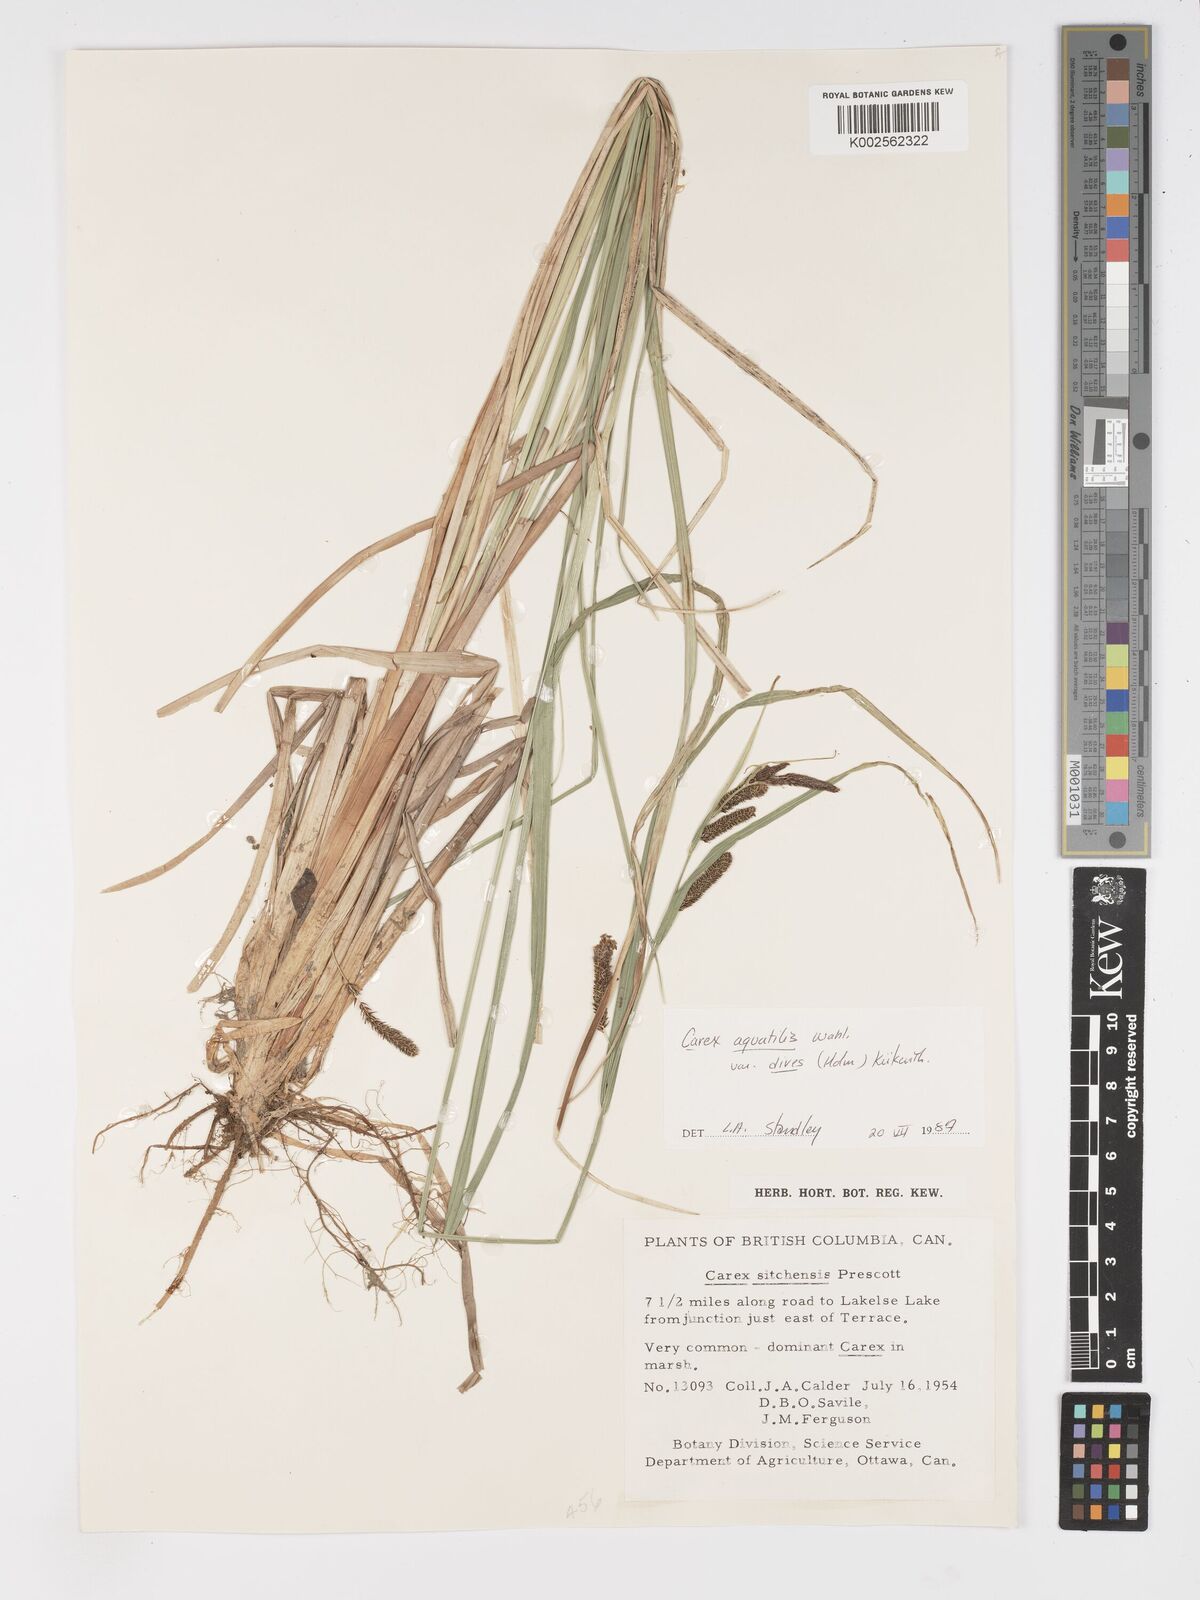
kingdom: Plantae
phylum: Tracheophyta
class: Liliopsida
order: Poales
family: Cyperaceae
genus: Carex
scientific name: Carex aquatilis
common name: Water sedge
